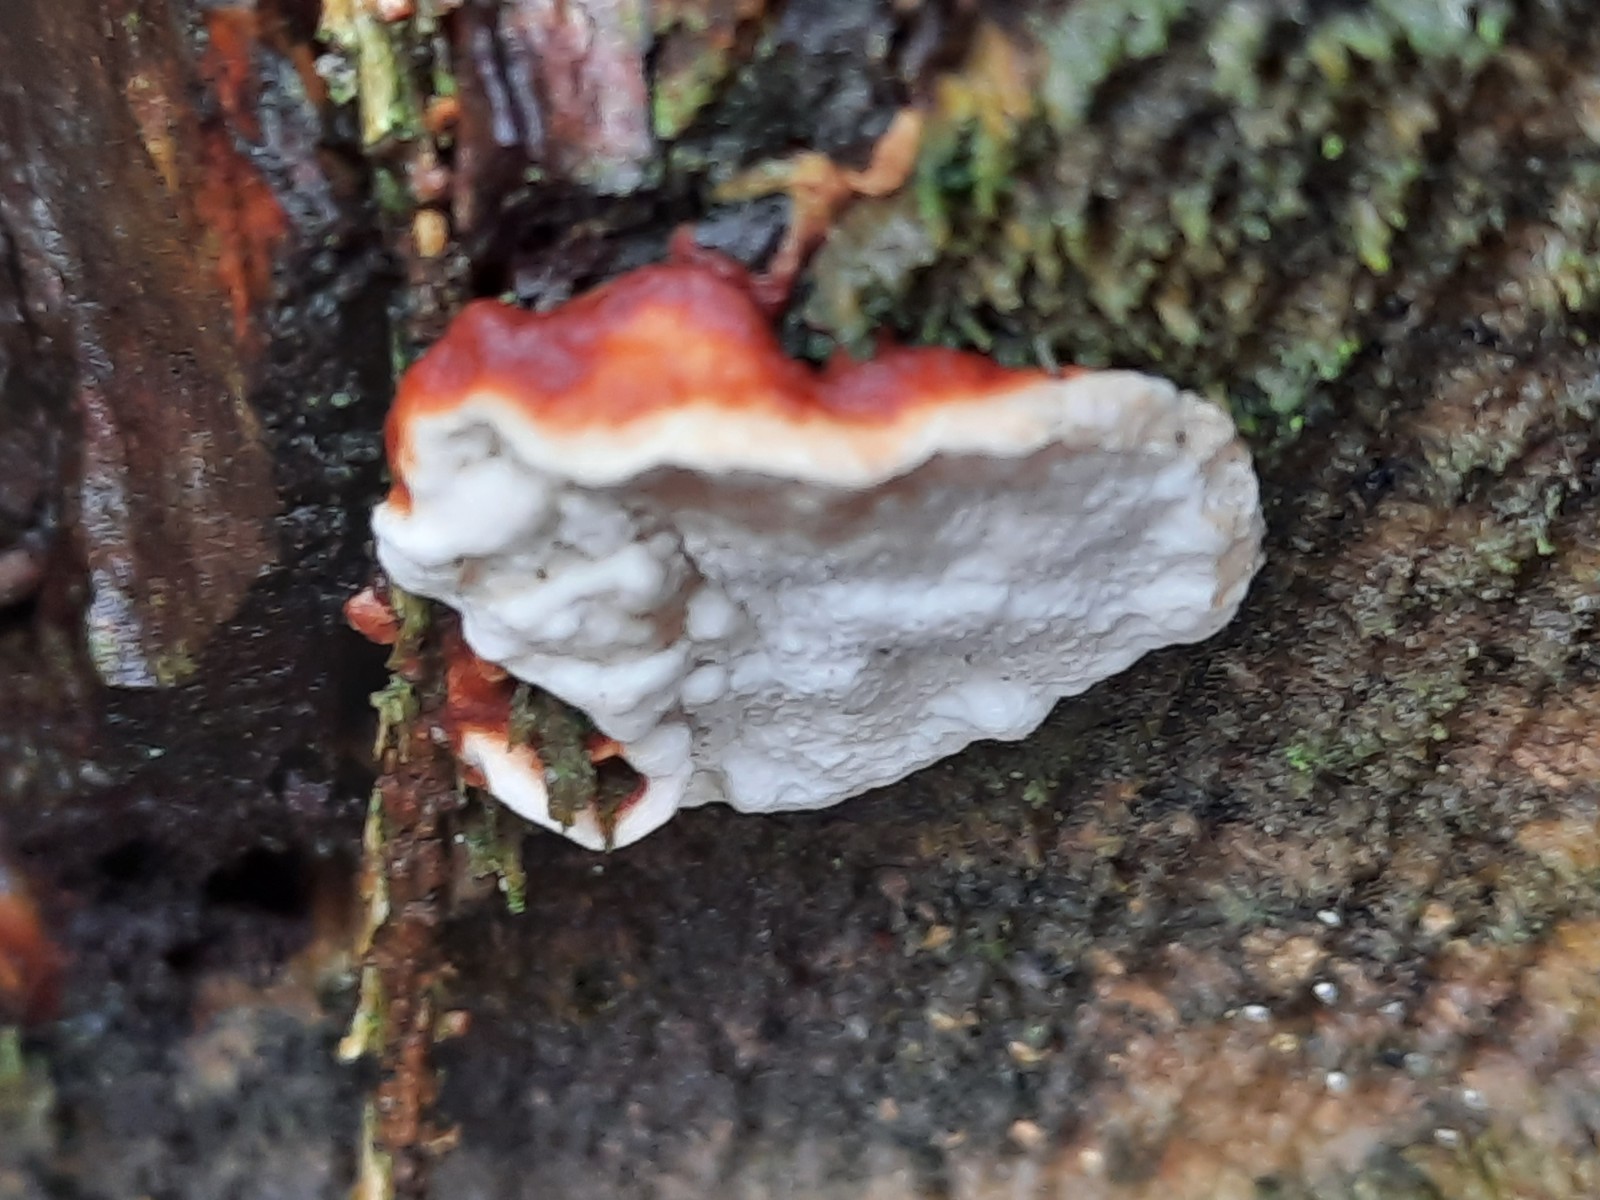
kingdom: Fungi
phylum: Basidiomycota
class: Agaricomycetes
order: Russulales
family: Bondarzewiaceae
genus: Heterobasidion
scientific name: Heterobasidion annosum
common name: almindelig rodfordærver
